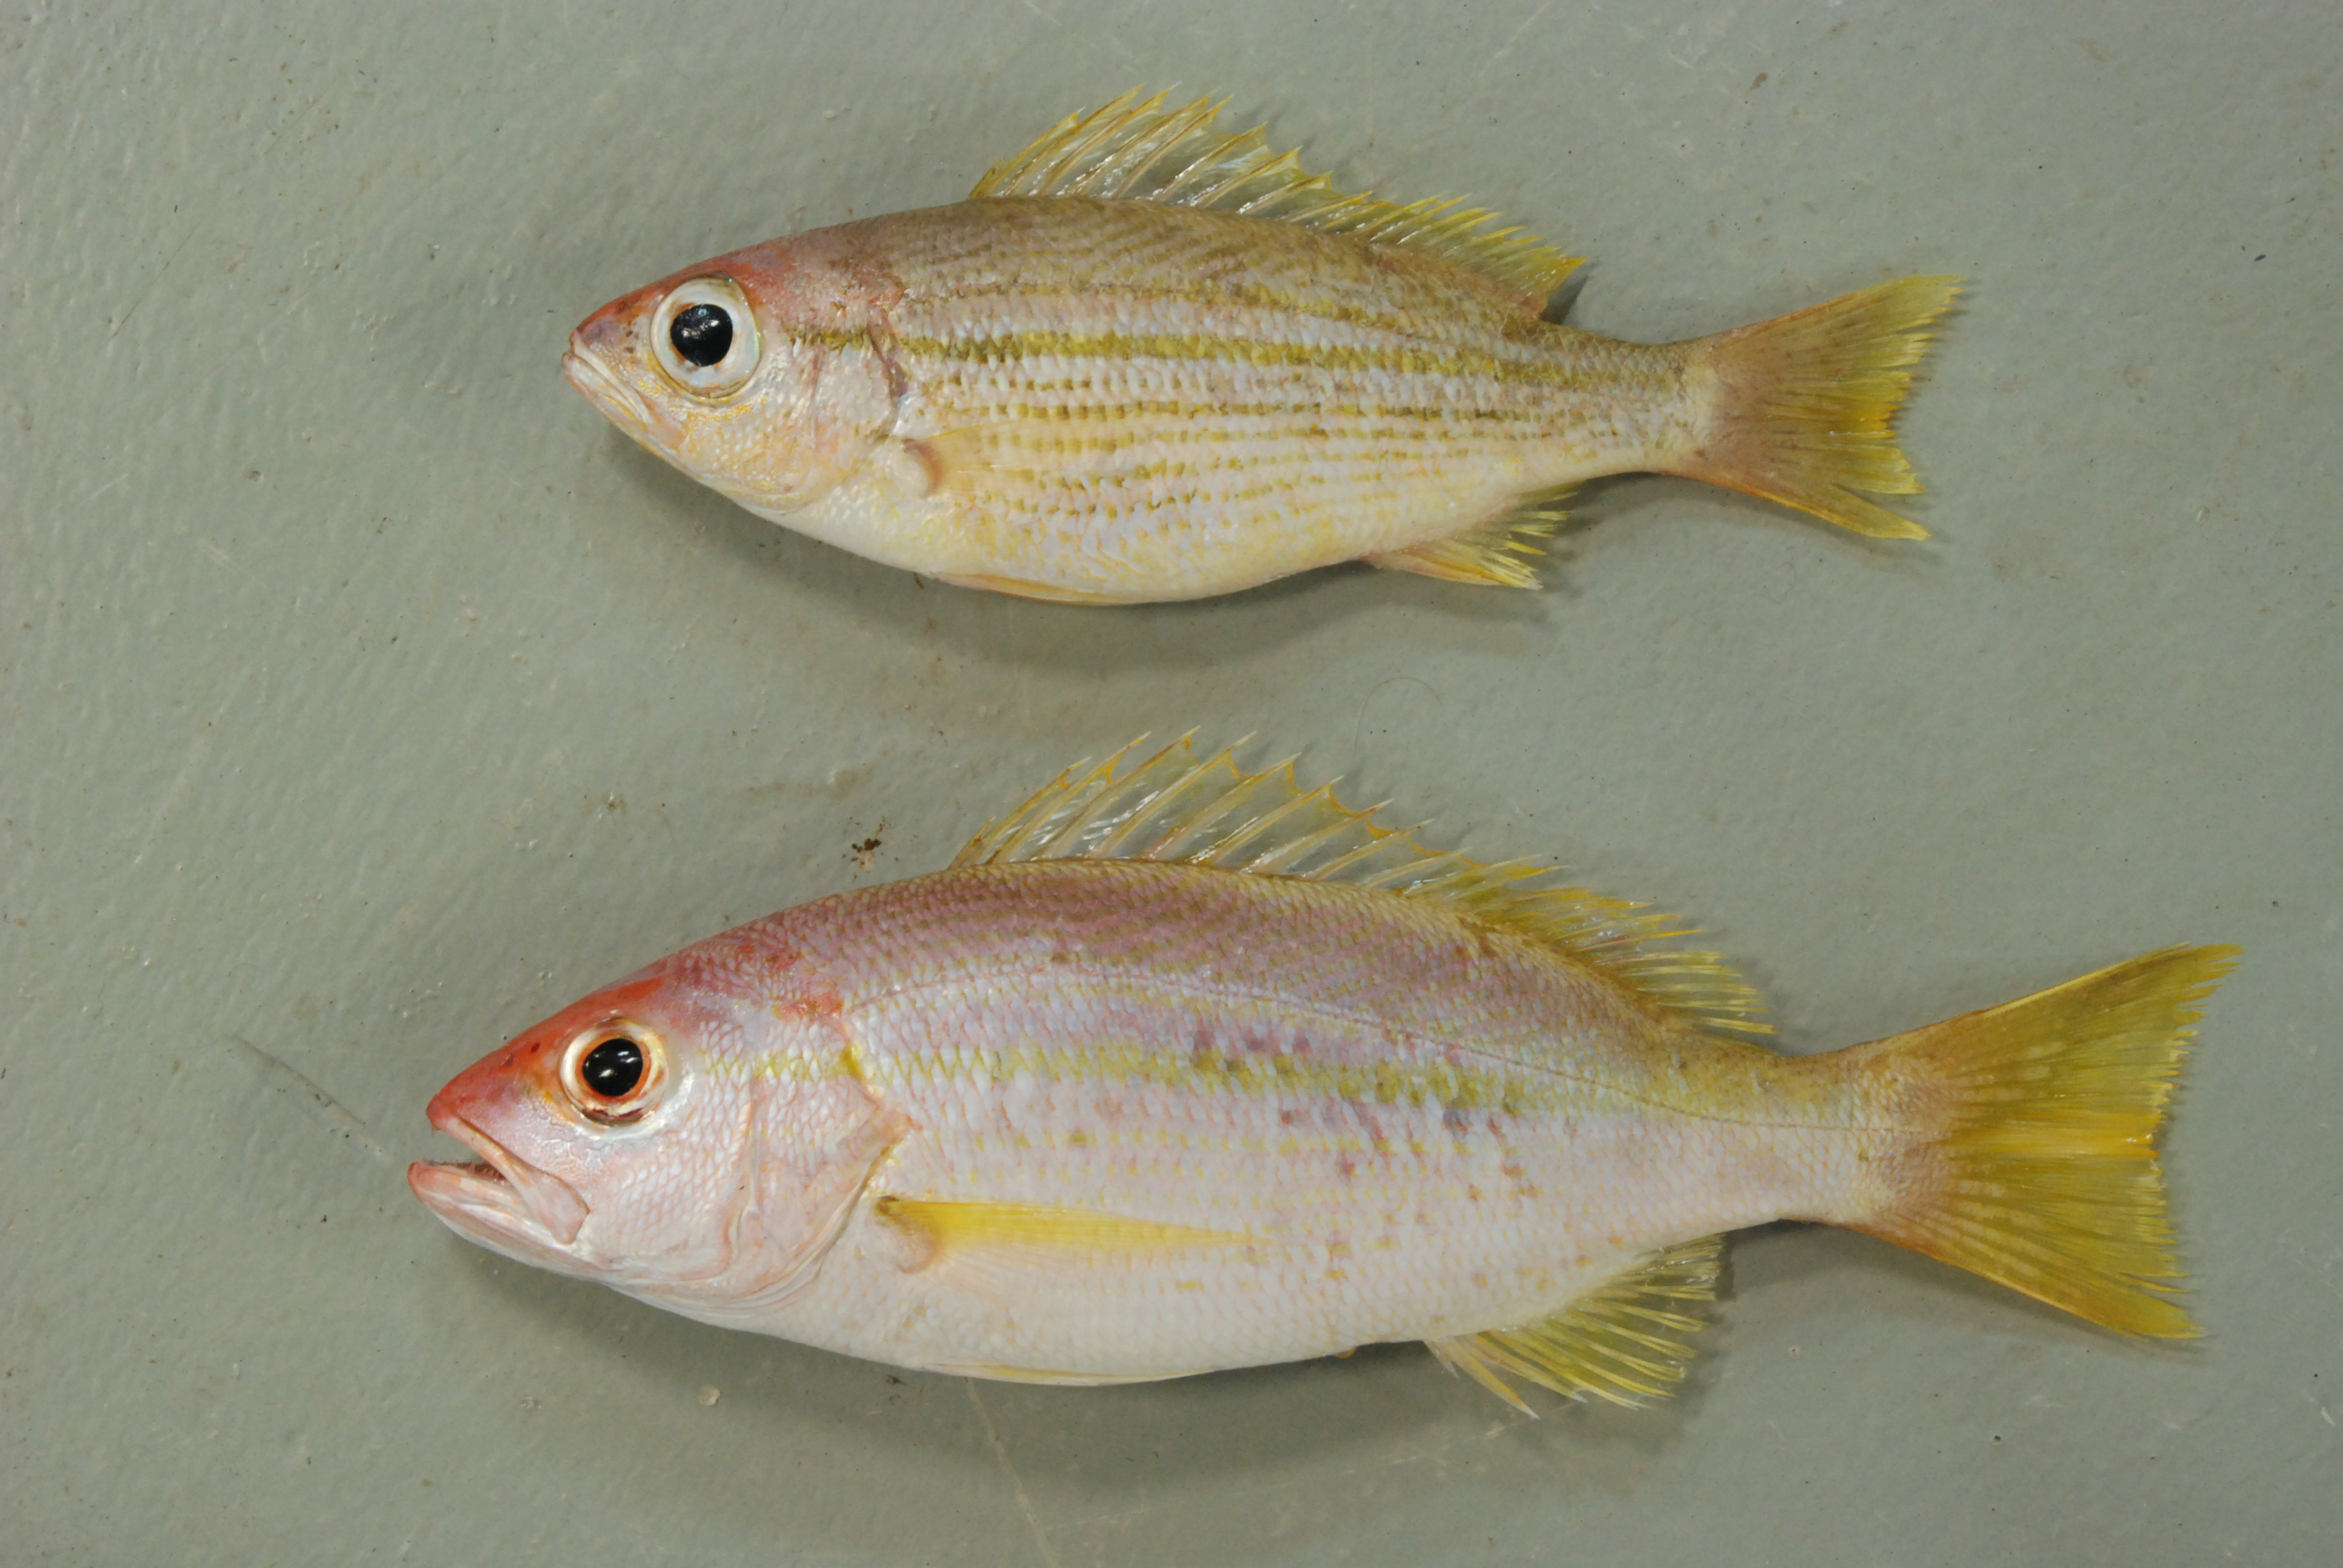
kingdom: Animalia
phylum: Chordata
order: Perciformes
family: Lutjanidae
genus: Lutjanus
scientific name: Lutjanus madras
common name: Indian snapper
